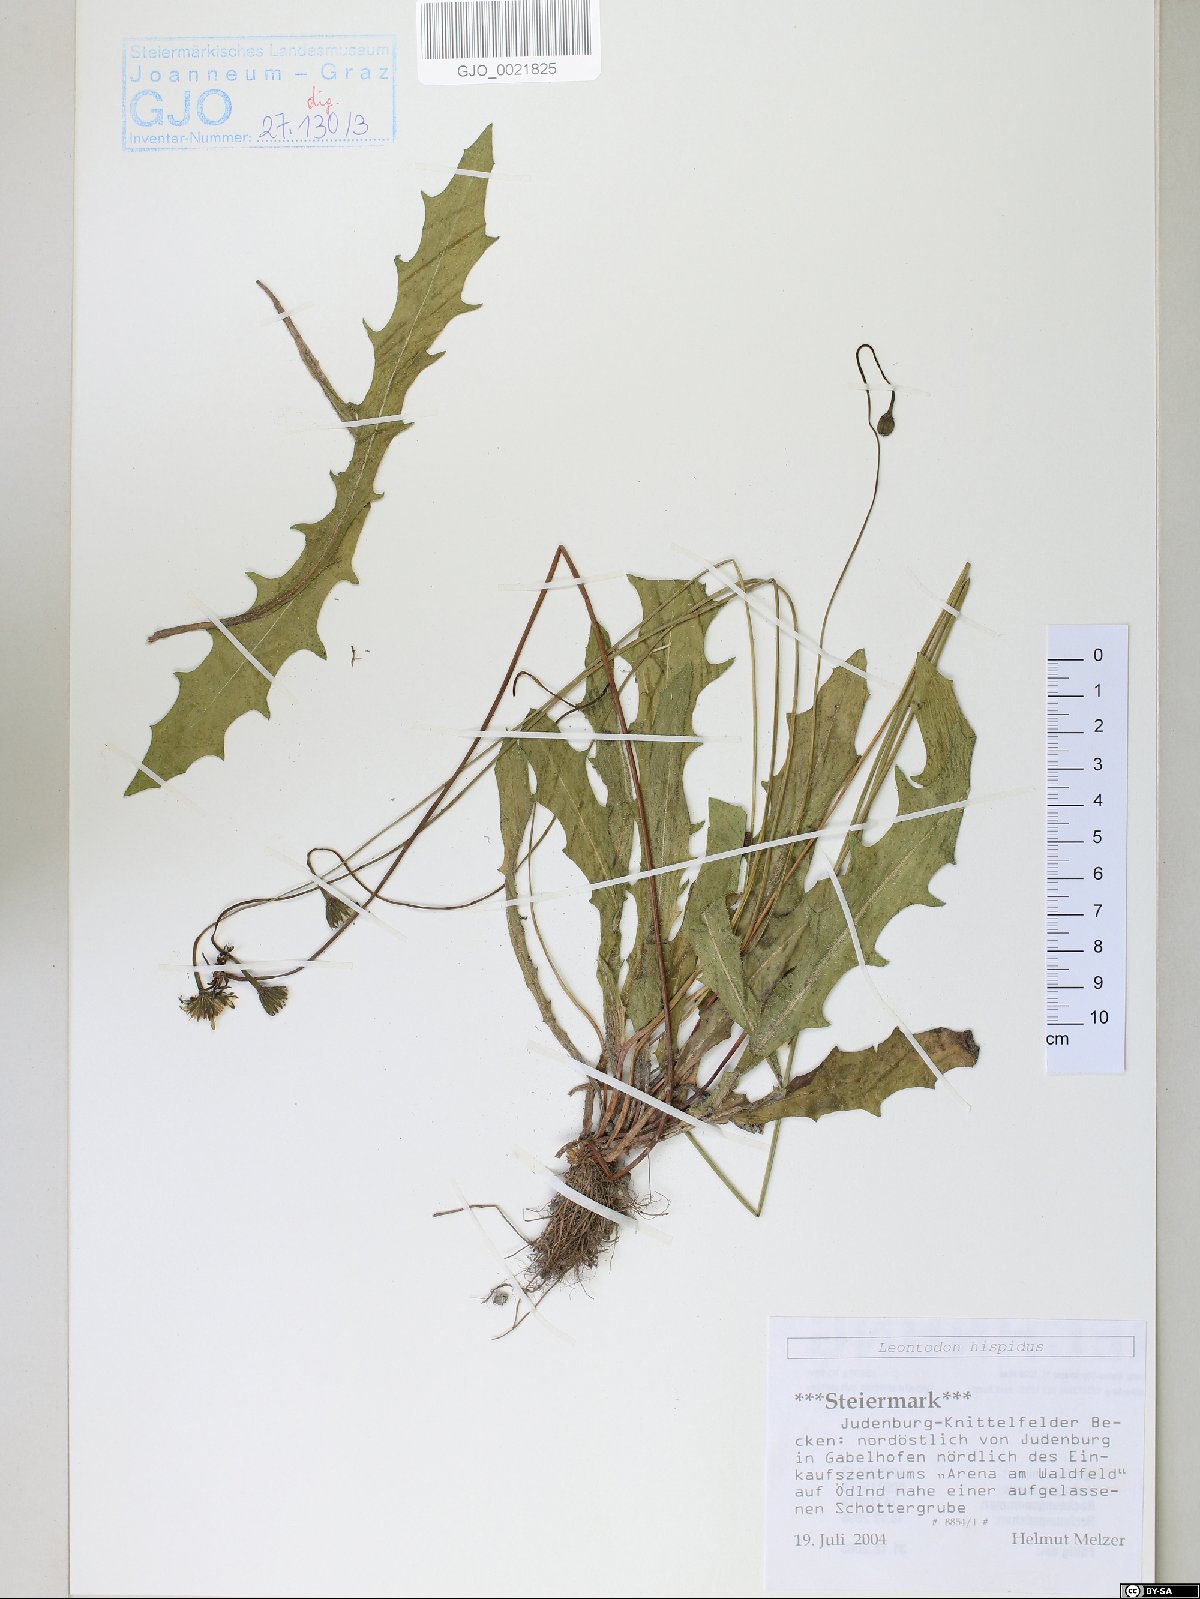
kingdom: Plantae
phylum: Tracheophyta
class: Magnoliopsida
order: Asterales
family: Asteraceae
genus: Leontodon
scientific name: Leontodon hispidus
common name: Rough hawkbit
